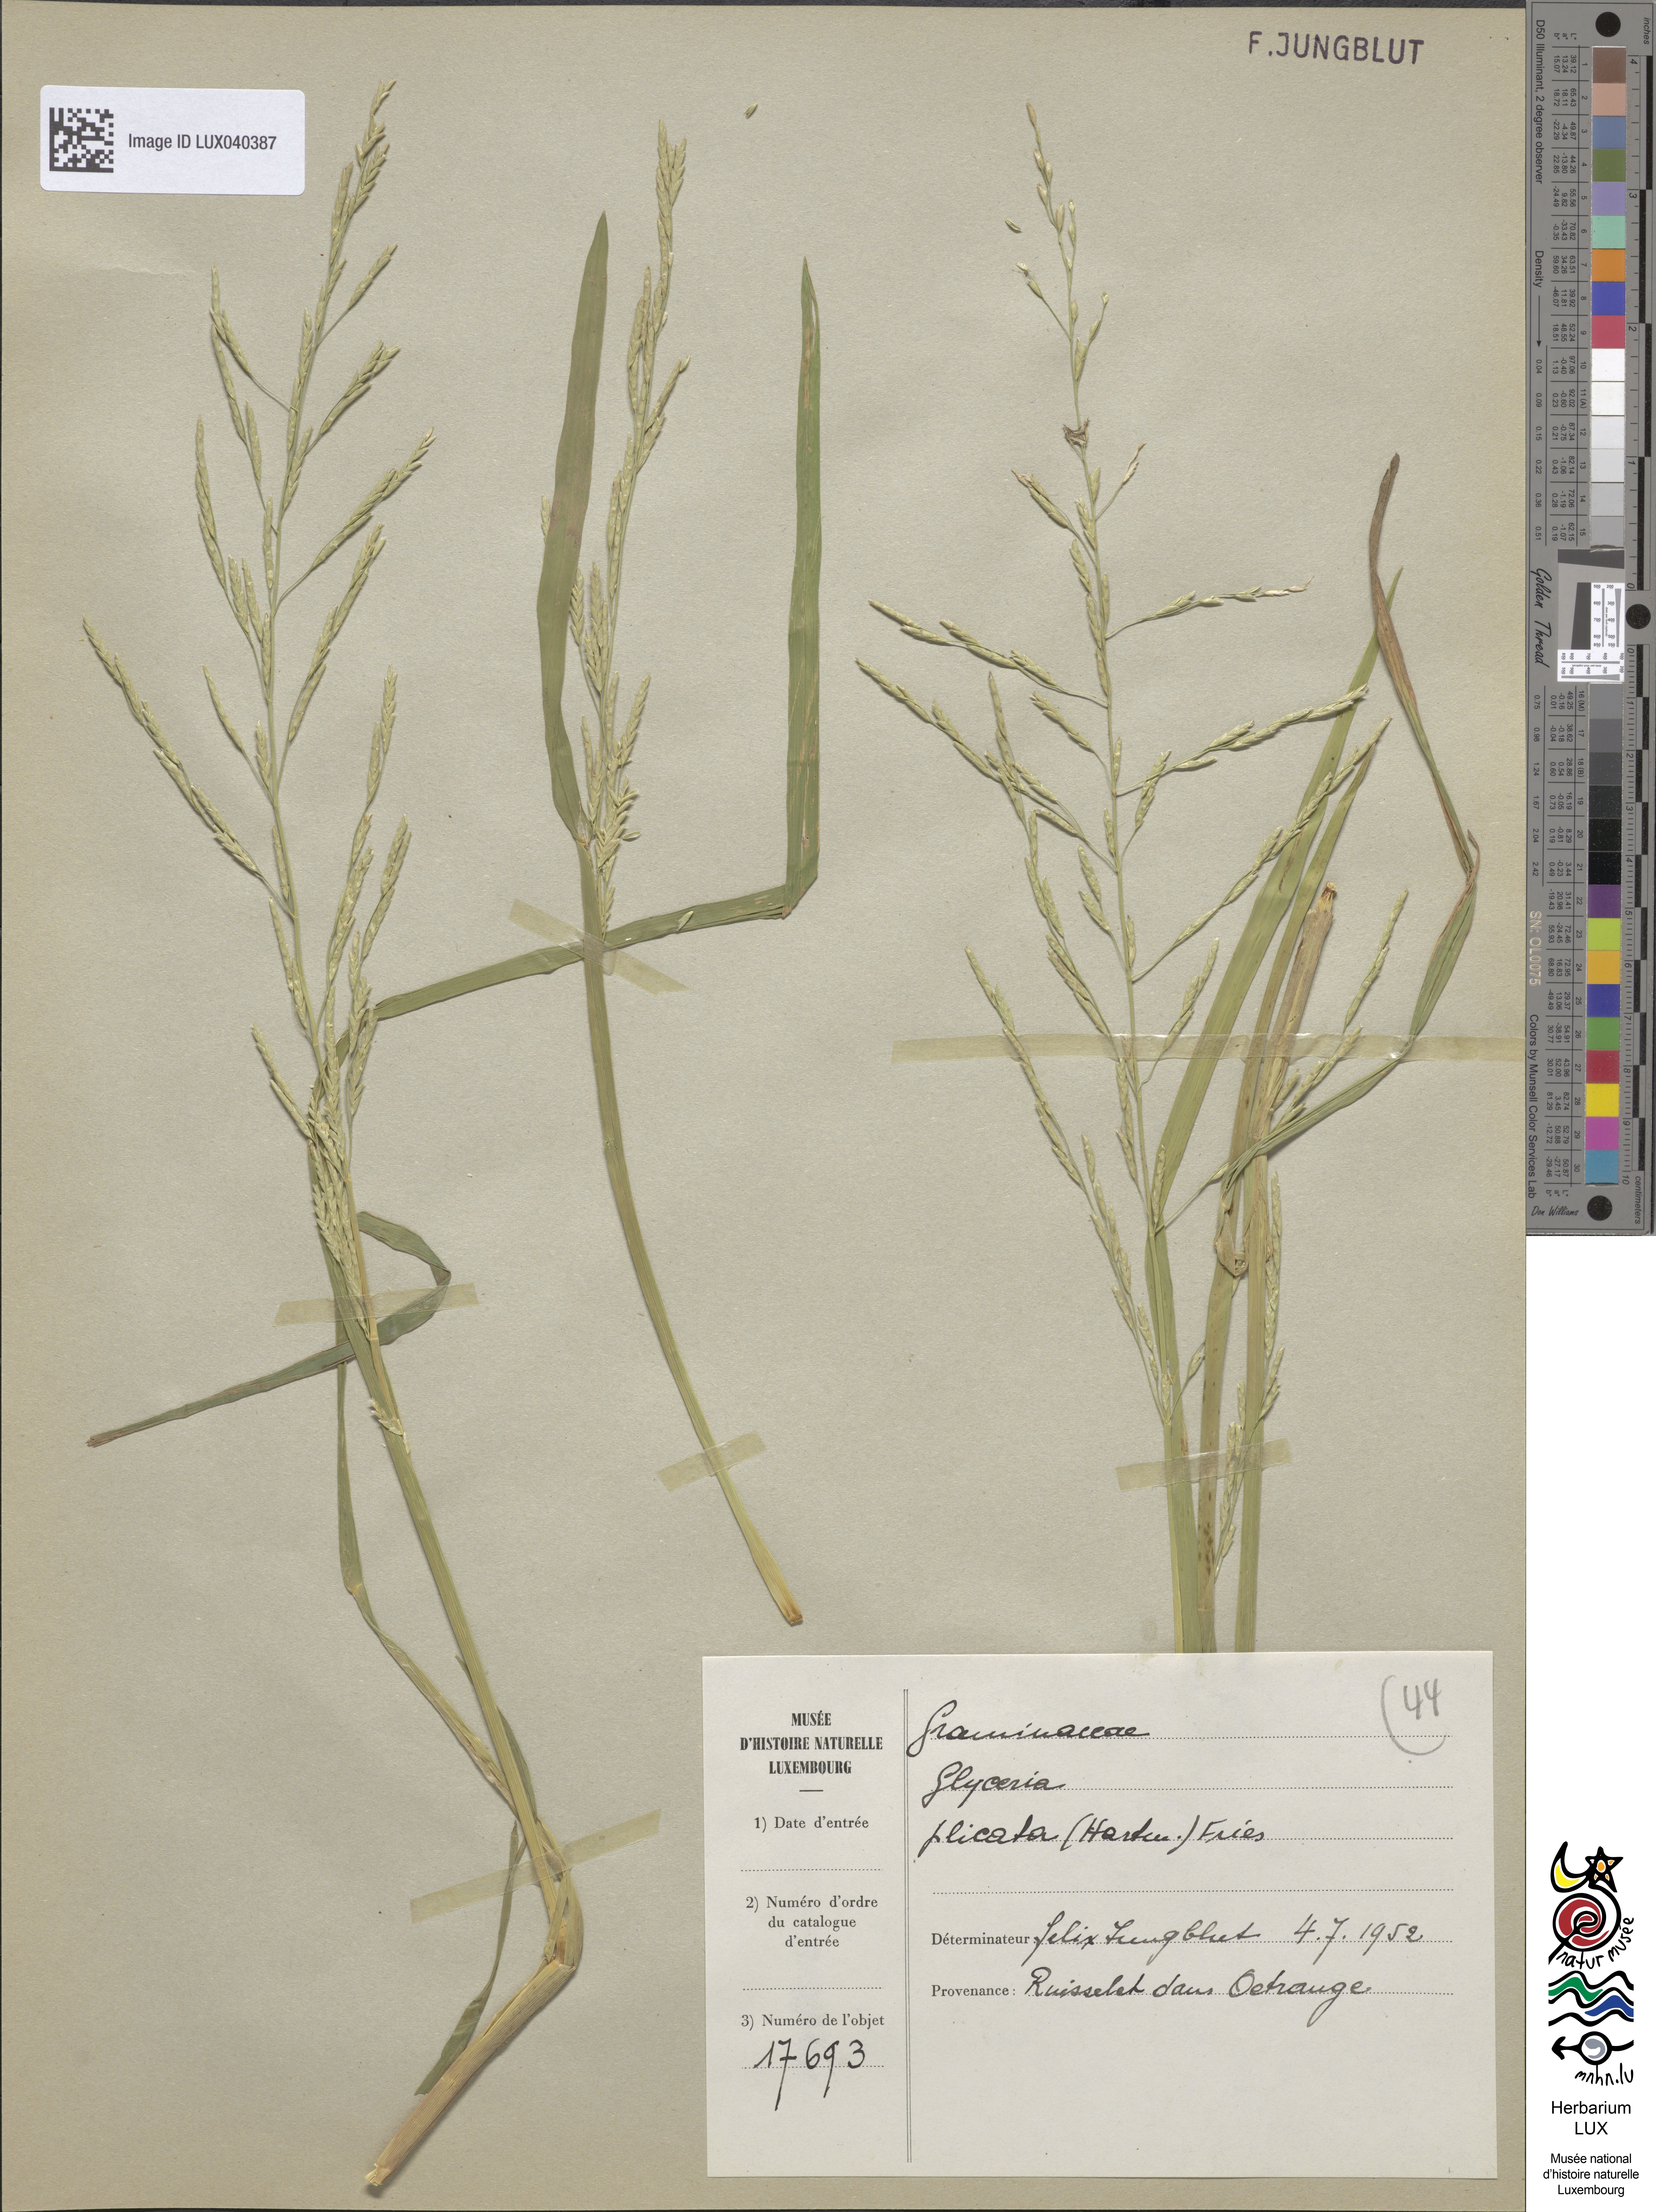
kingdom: Plantae
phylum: Tracheophyta
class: Liliopsida
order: Poales
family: Poaceae
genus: Glyceria
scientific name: Glyceria notata
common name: Plicate sweet-grass
